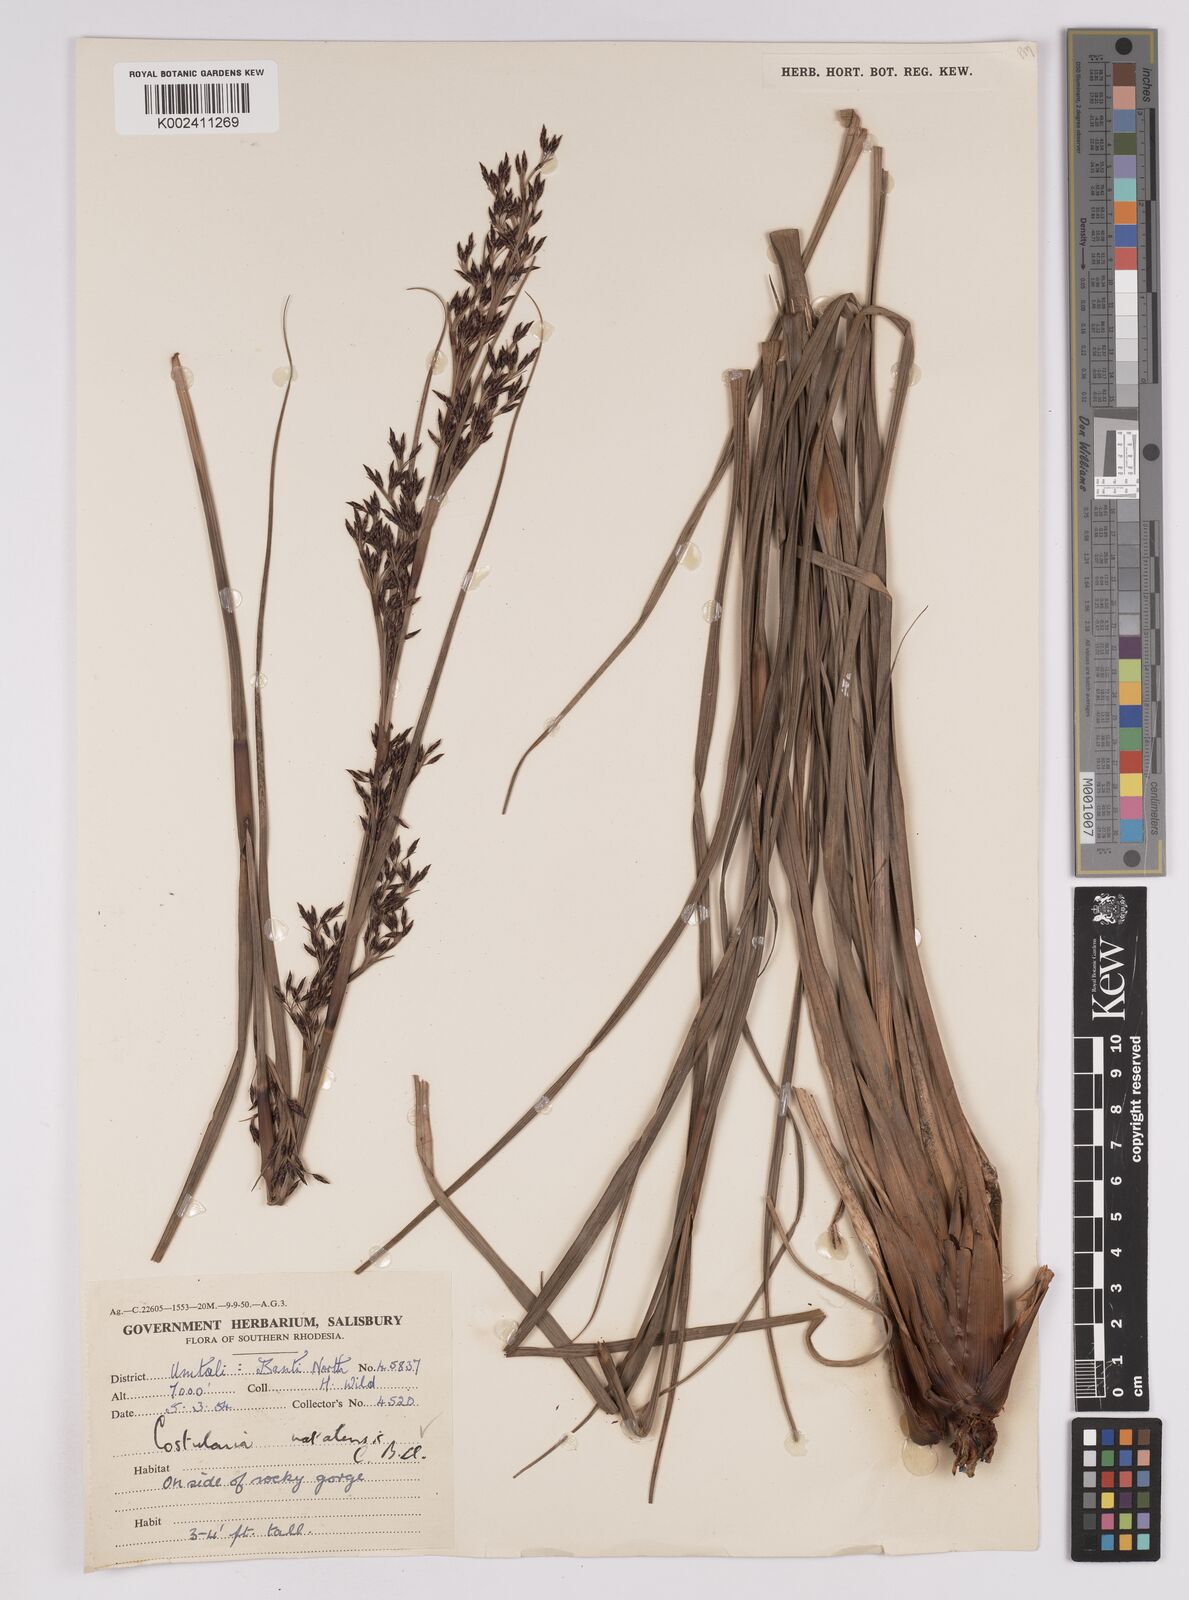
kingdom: Plantae
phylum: Tracheophyta
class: Liliopsida
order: Poales
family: Cyperaceae
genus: Costularia
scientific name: Costularia natalensis
